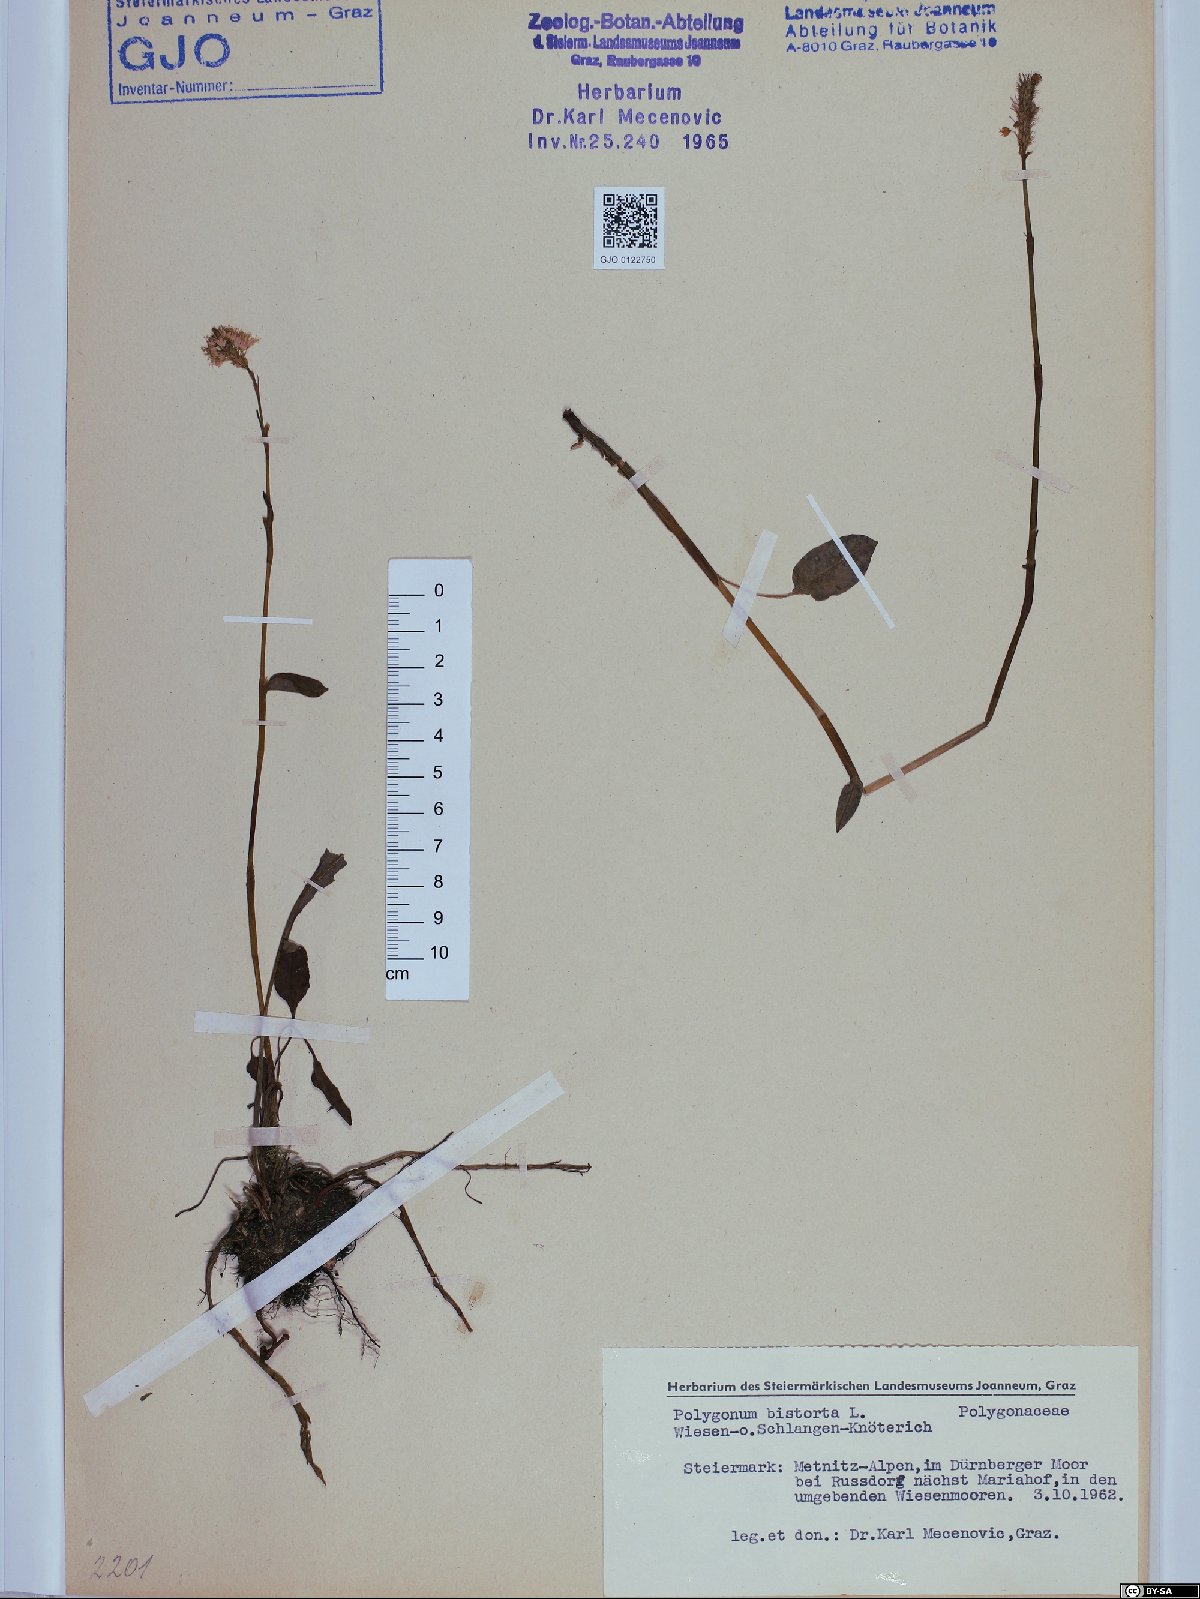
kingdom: Plantae
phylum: Tracheophyta
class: Magnoliopsida
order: Caryophyllales
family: Polygonaceae
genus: Bistorta
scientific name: Bistorta officinalis
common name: Common bistort
